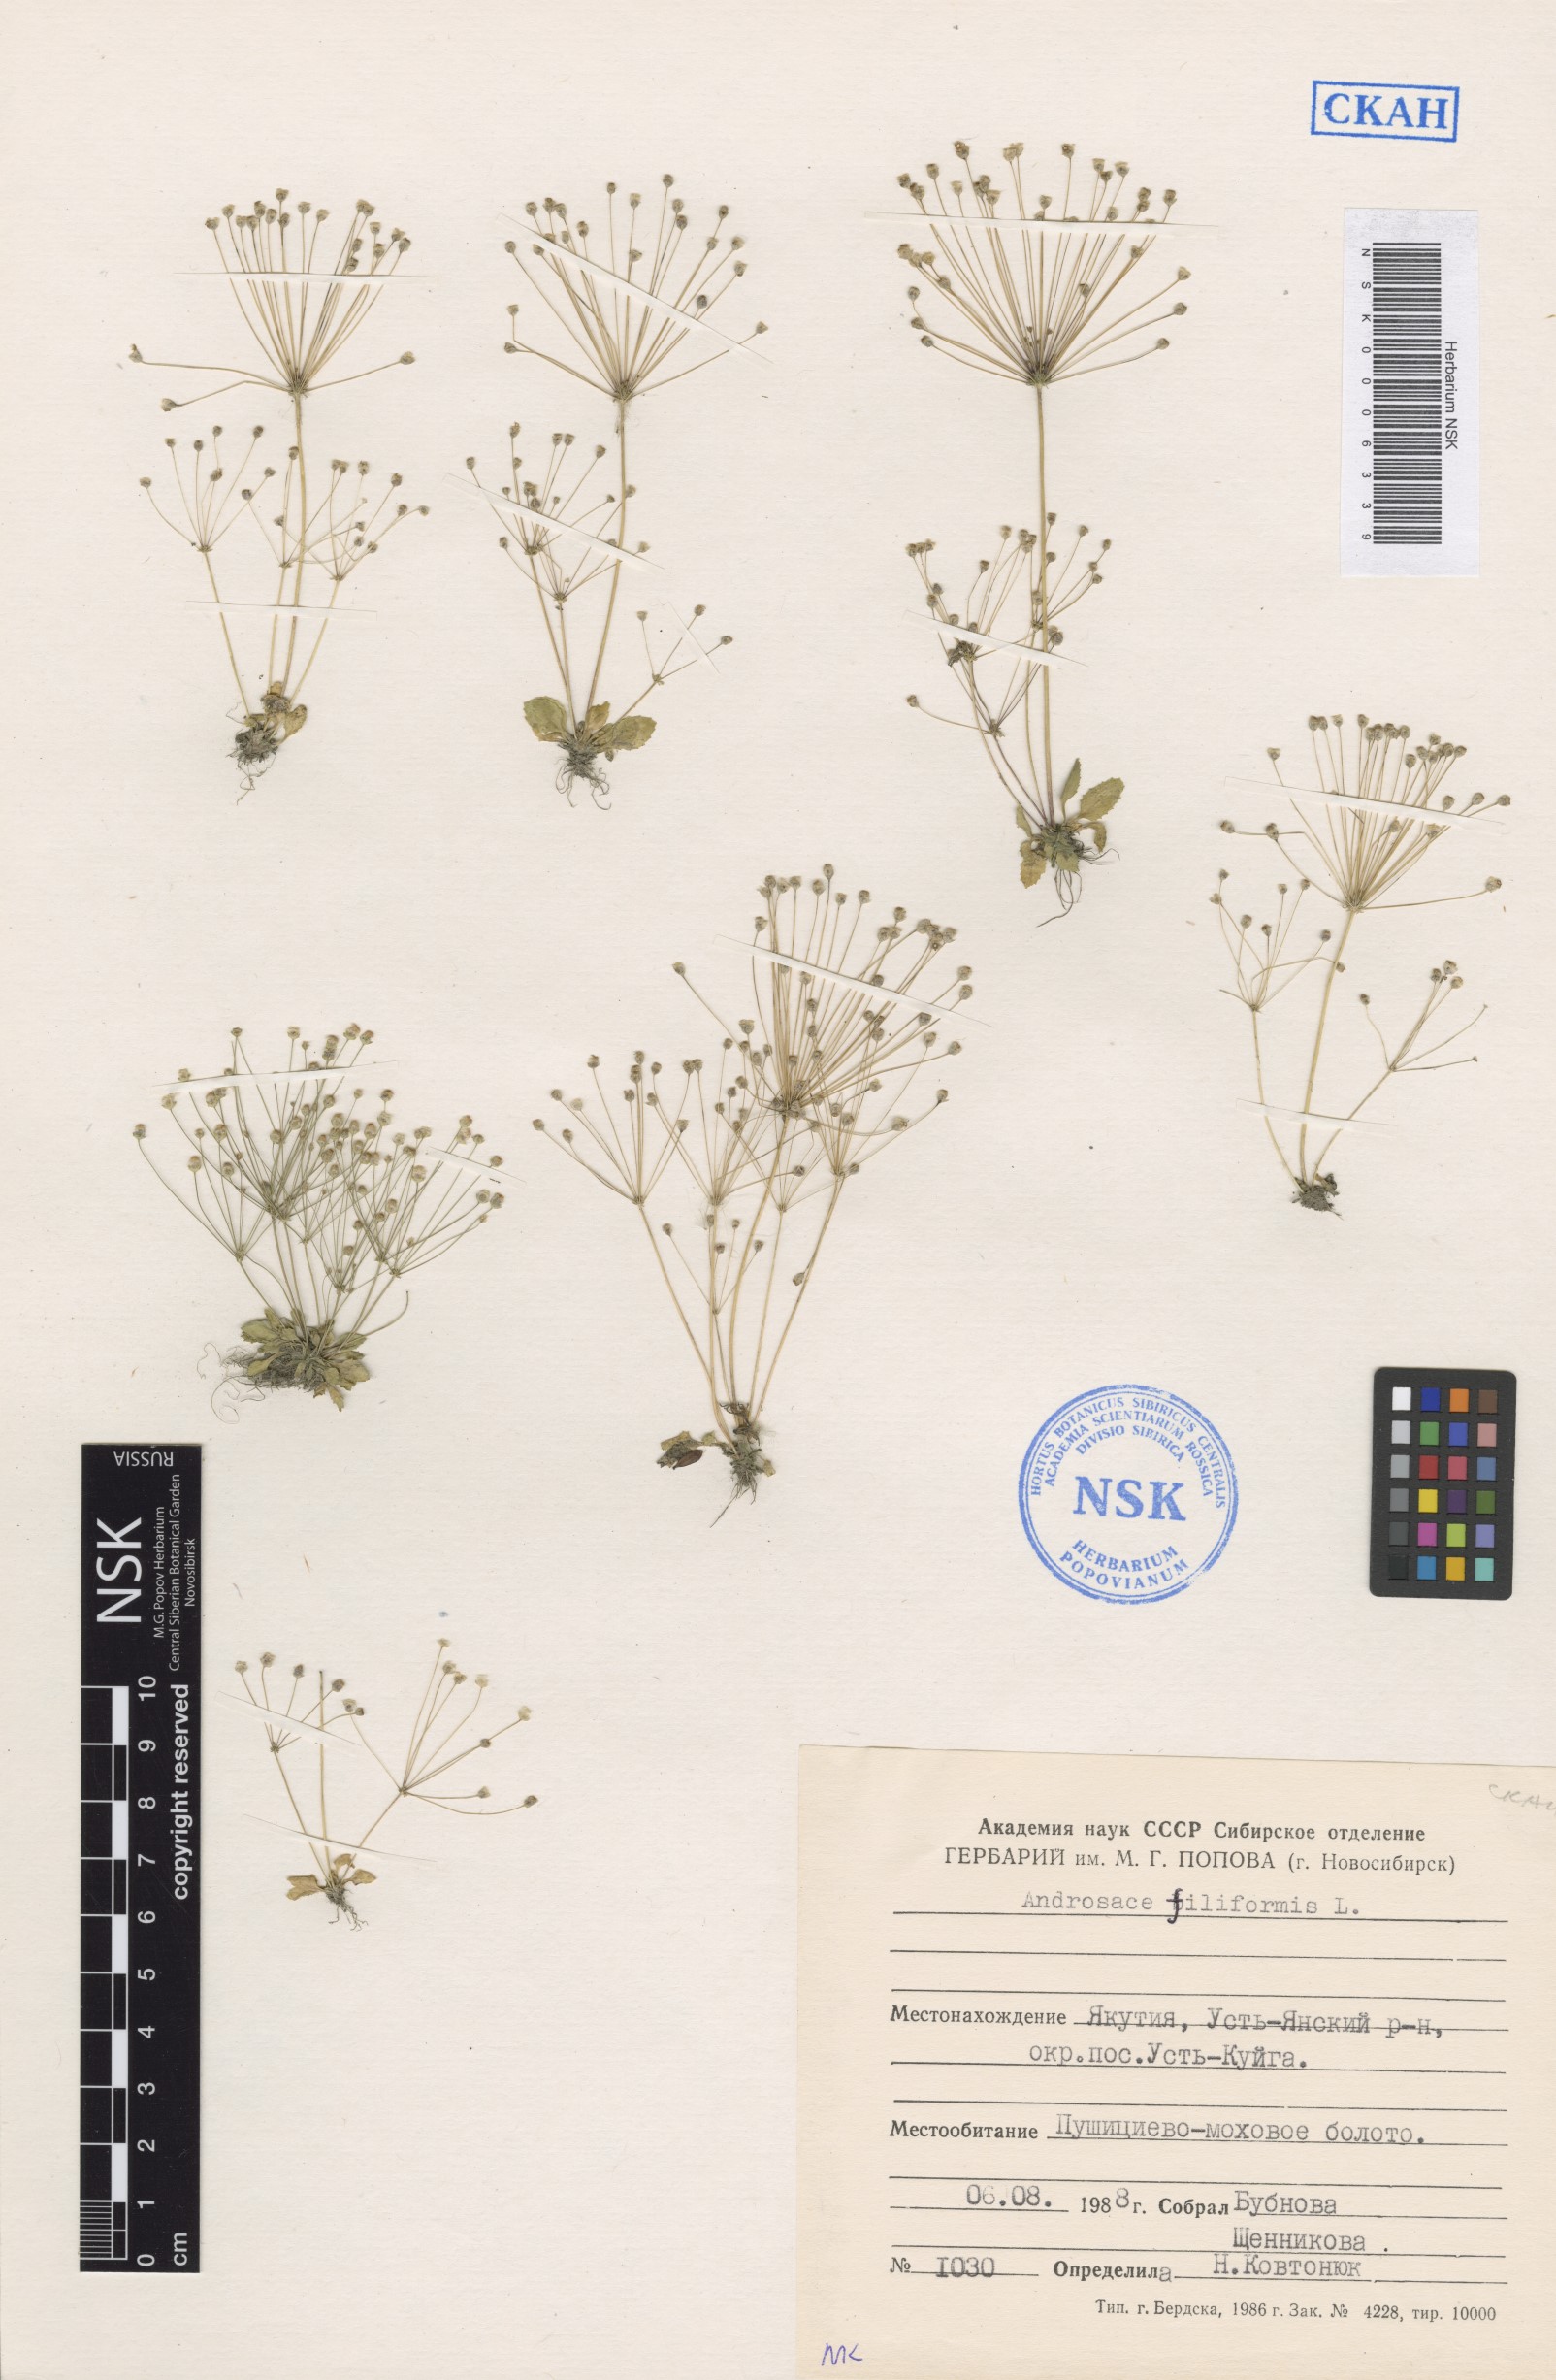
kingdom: Plantae
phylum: Tracheophyta
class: Magnoliopsida
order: Ericales
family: Primulaceae
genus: Androsace
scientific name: Androsace filiformis
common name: Filiform rock jasmine
